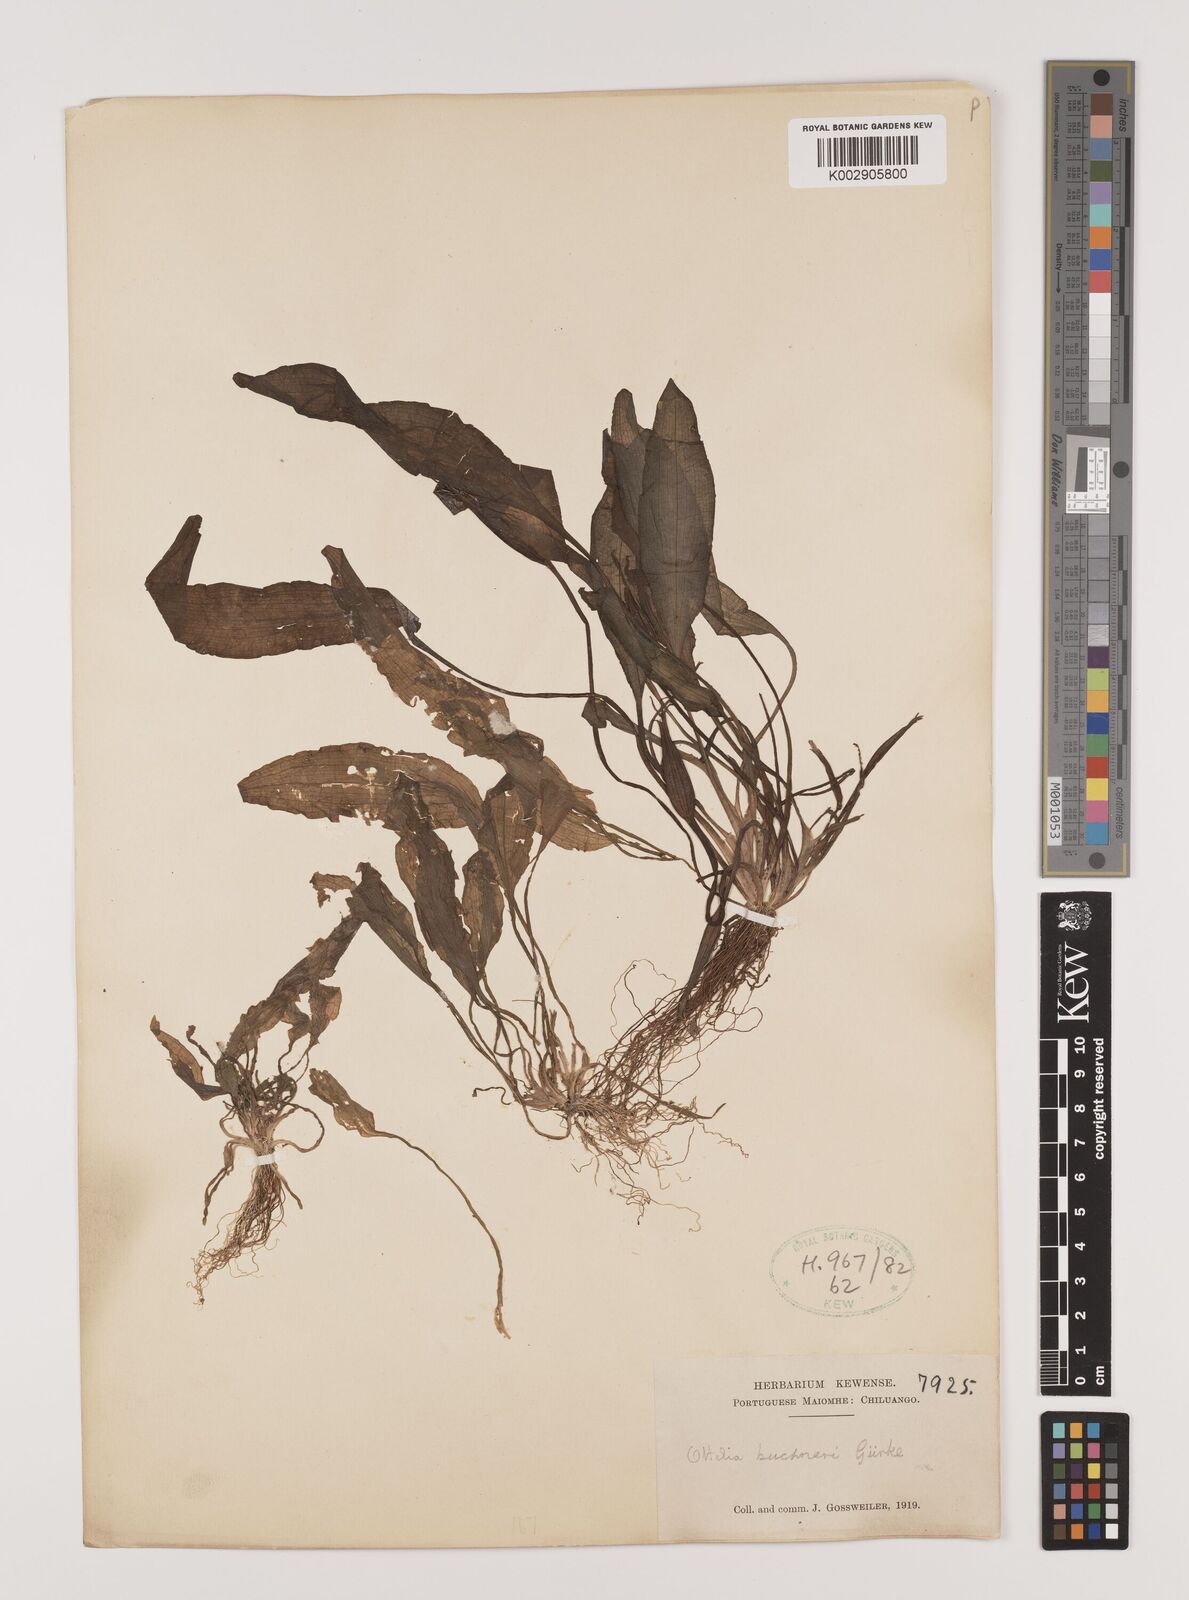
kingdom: Plantae
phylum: Tracheophyta
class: Liliopsida
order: Alismatales
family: Hydrocharitaceae
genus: Ottelia
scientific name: Ottelia ulvifolia
